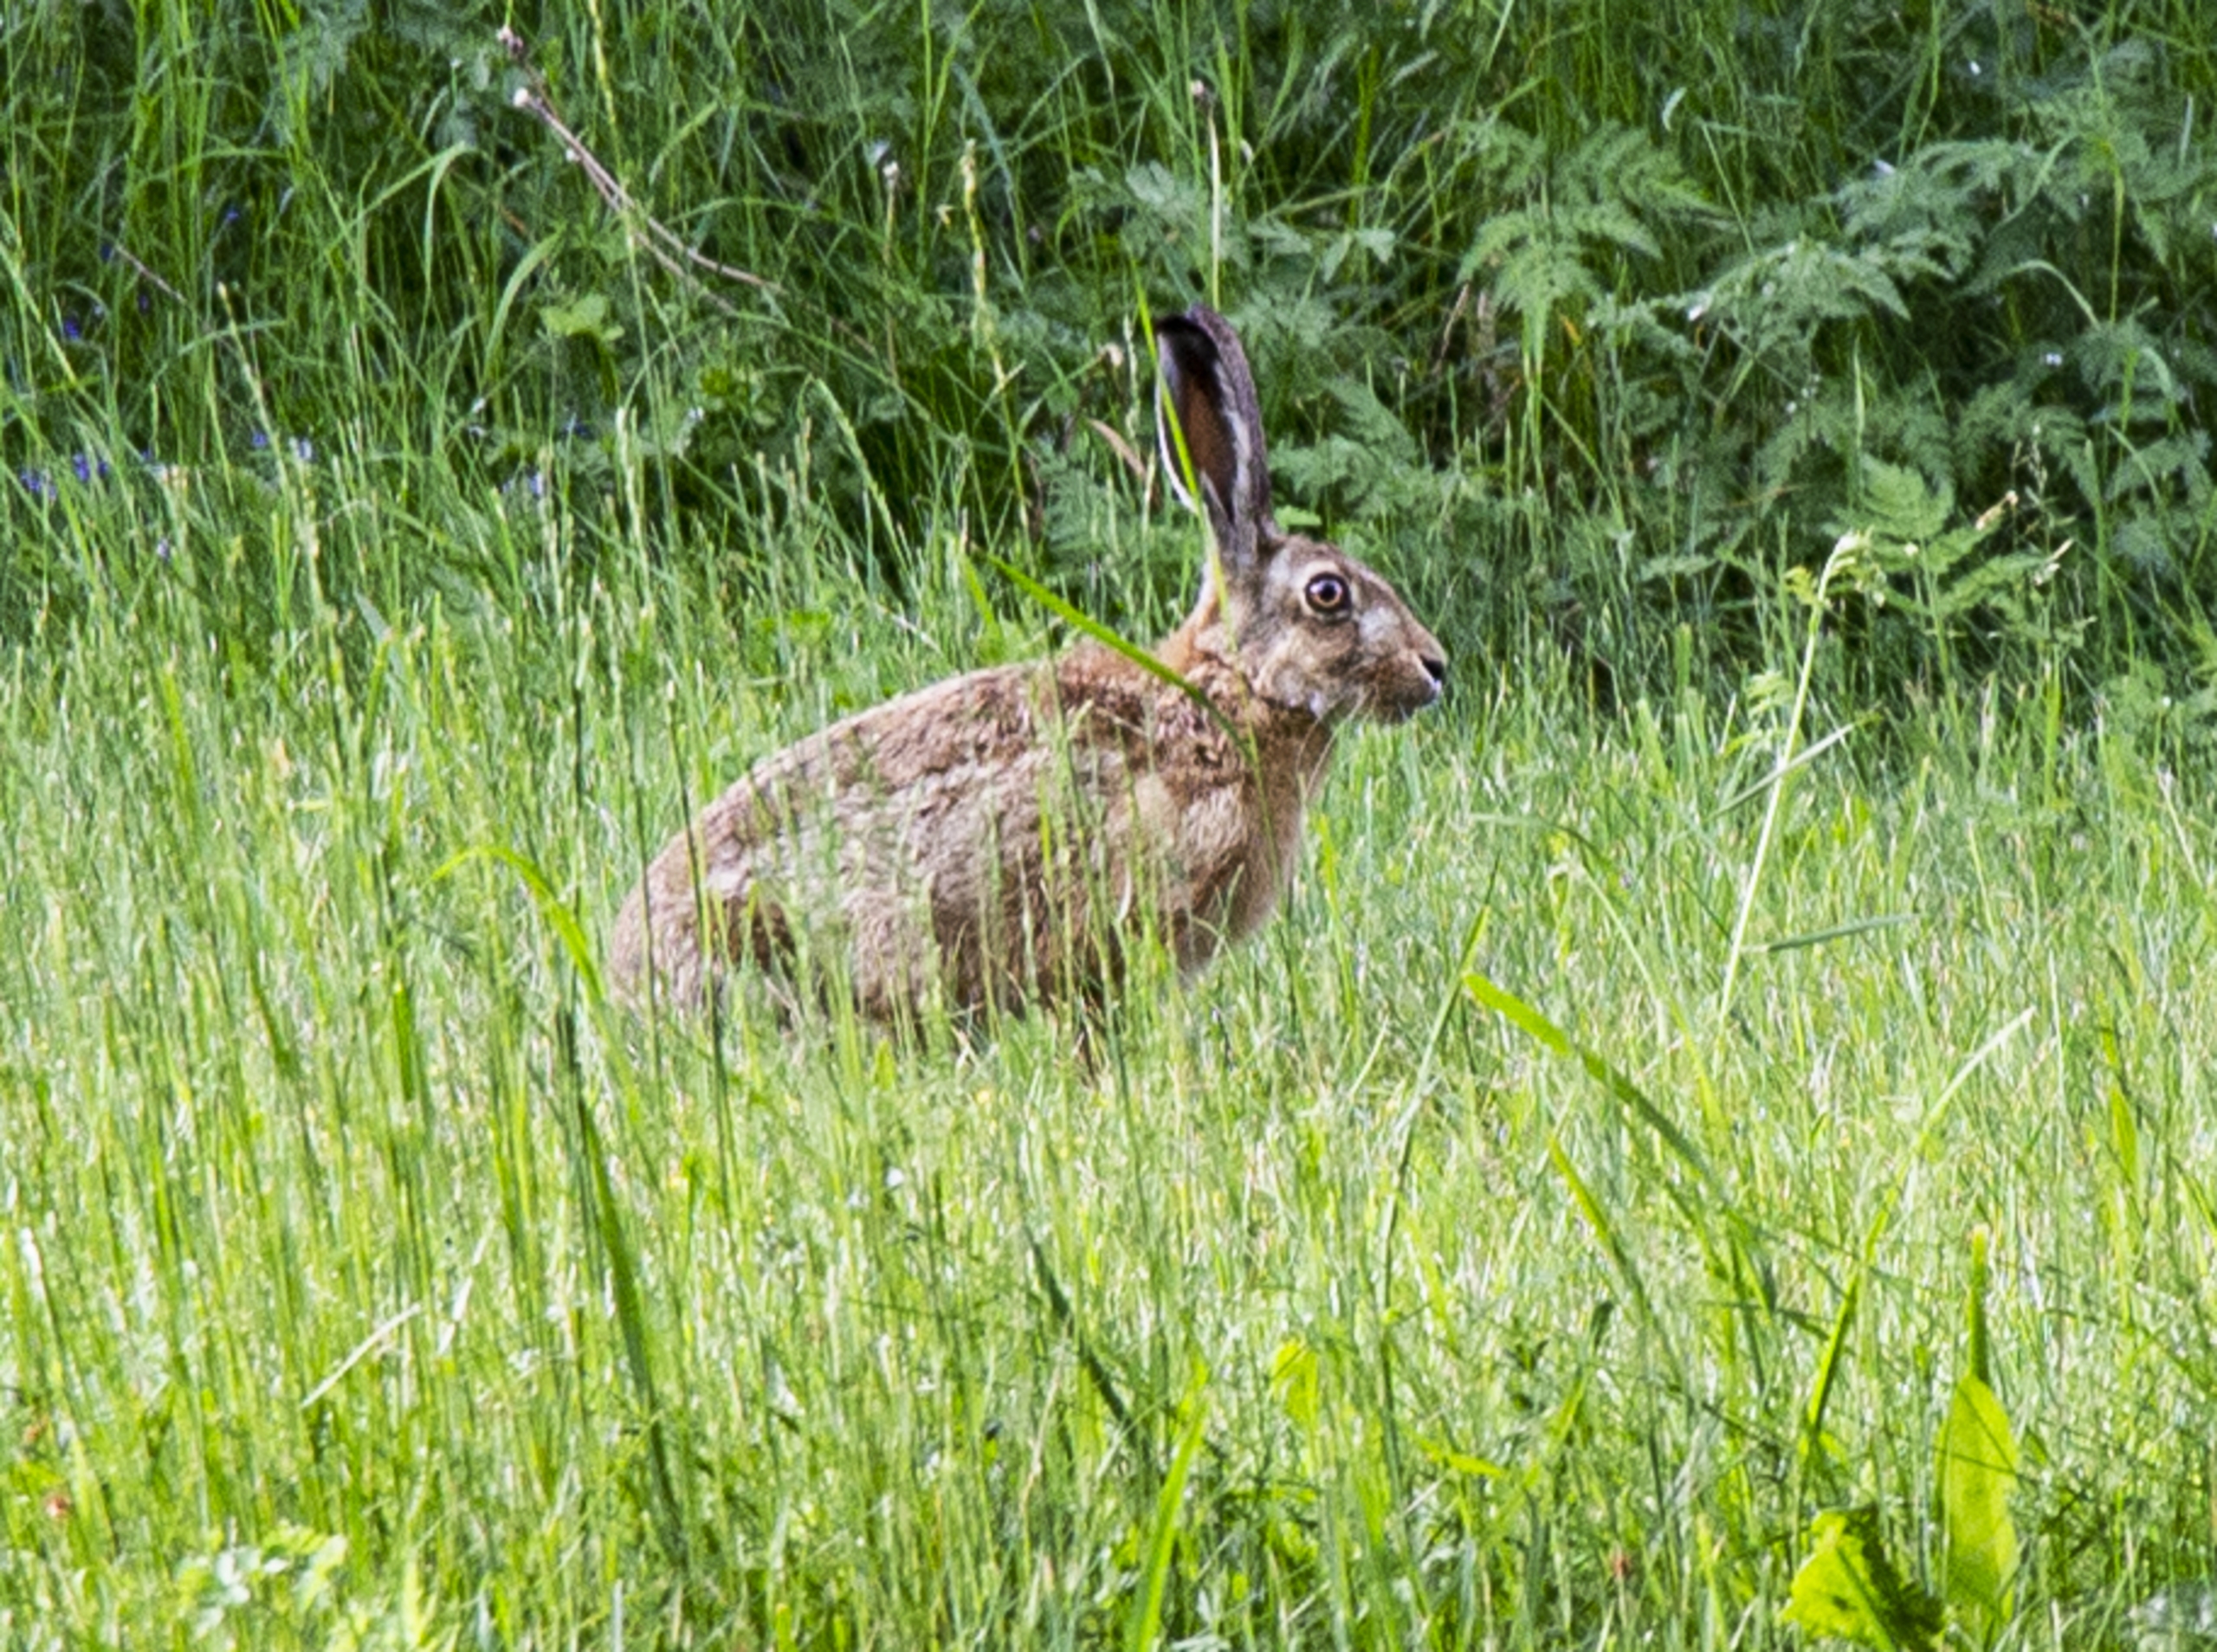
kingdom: Animalia
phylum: Chordata
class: Mammalia
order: Lagomorpha
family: Leporidae
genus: Lepus
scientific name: Lepus europaeus
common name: Hare
